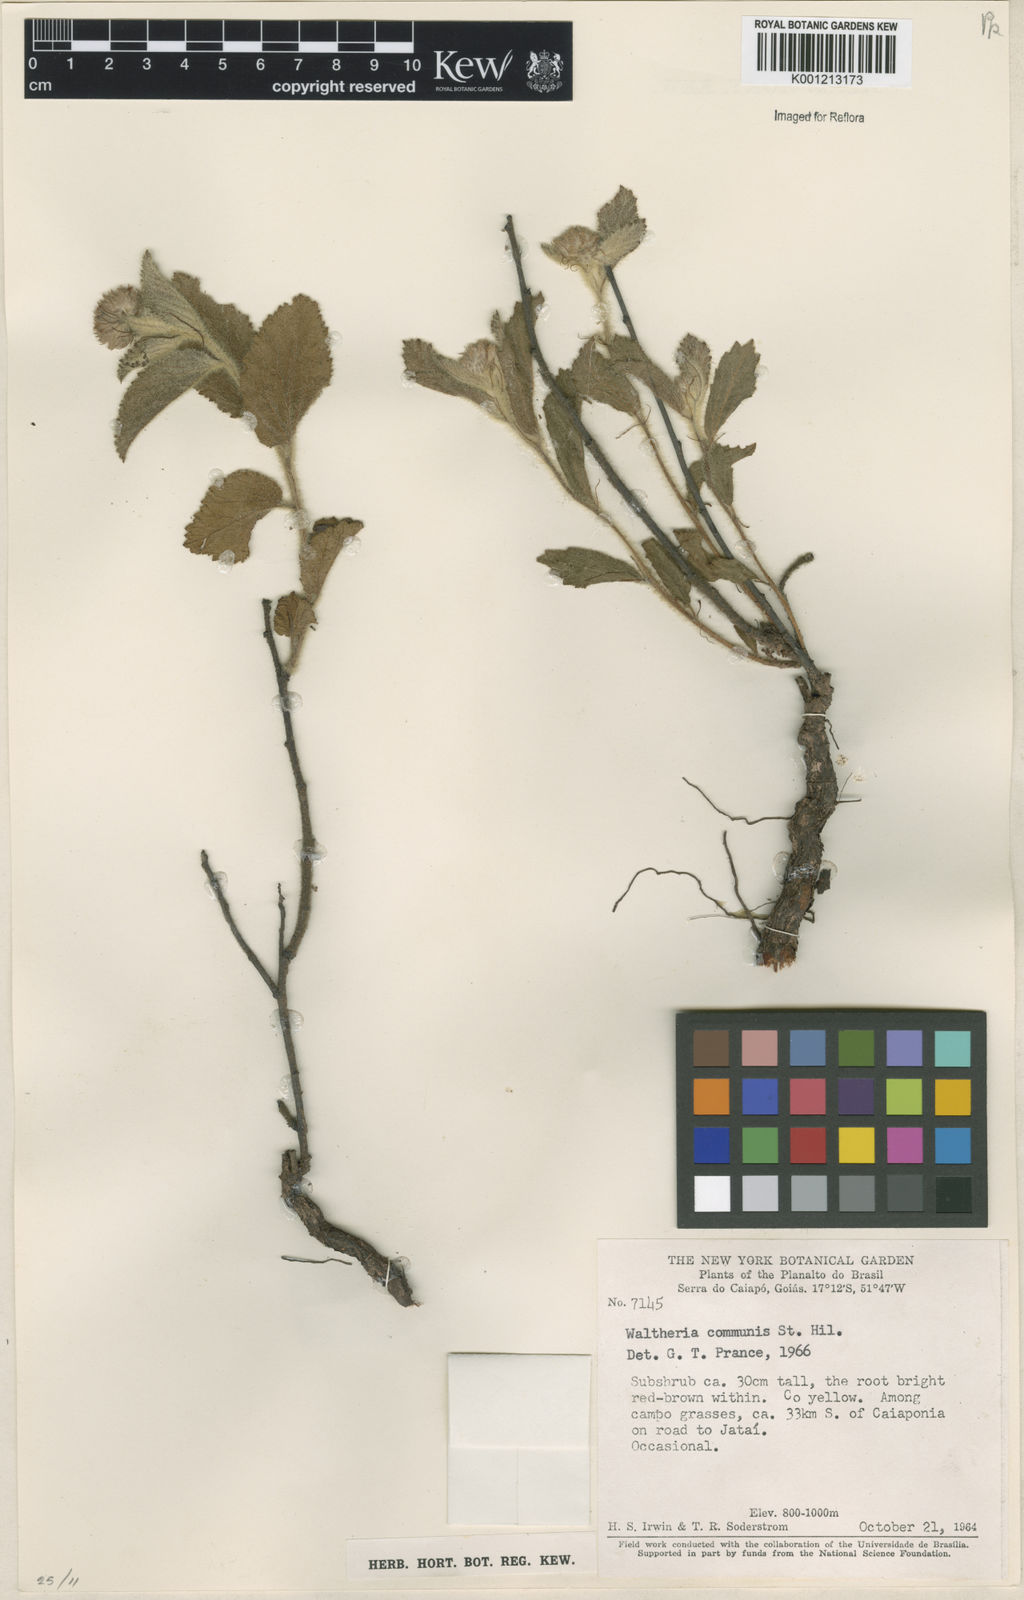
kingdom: Plantae
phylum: Tracheophyta
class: Magnoliopsida
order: Malvales
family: Malvaceae
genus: Waltheria
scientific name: Waltheria communis
